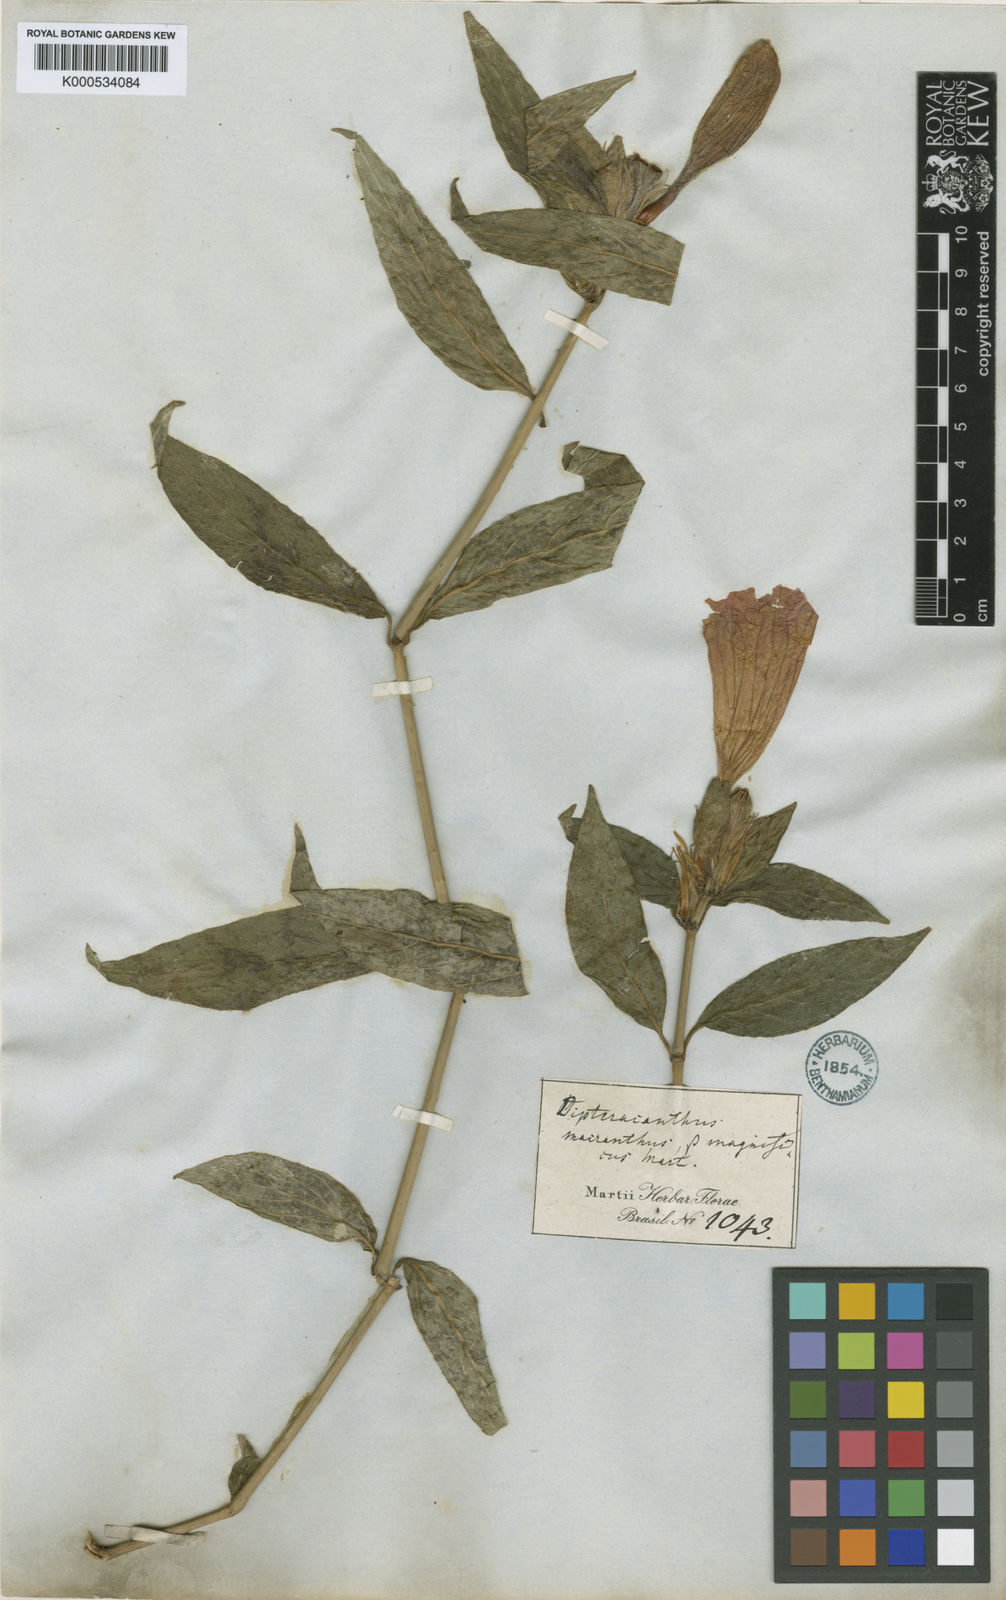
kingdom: Plantae
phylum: Tracheophyta
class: Magnoliopsida
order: Lamiales
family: Acanthaceae
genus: Ruellia
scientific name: Ruellia
